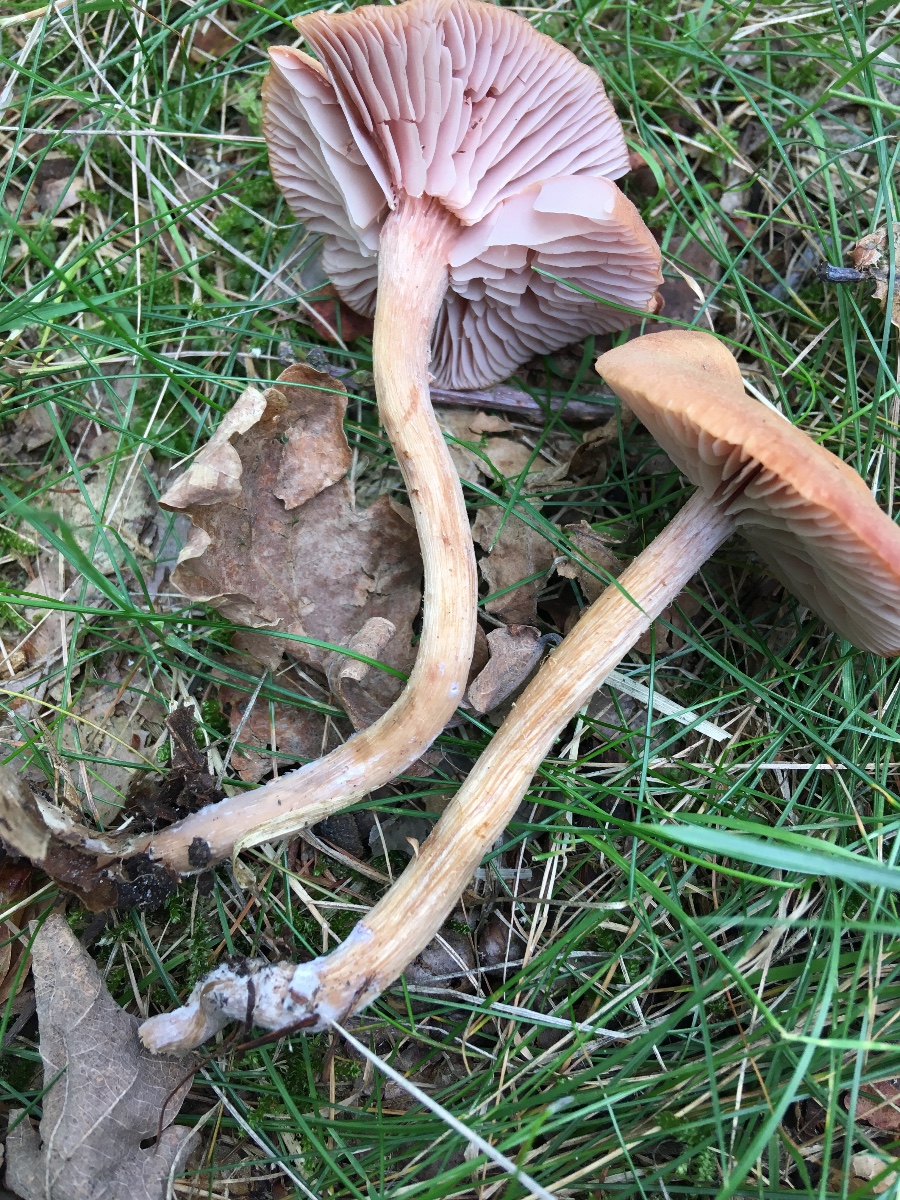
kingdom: Fungi
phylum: Basidiomycota
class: Agaricomycetes
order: Agaricales
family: Hydnangiaceae
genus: Laccaria
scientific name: Laccaria bicolor
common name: tvefarvet ametysthat
